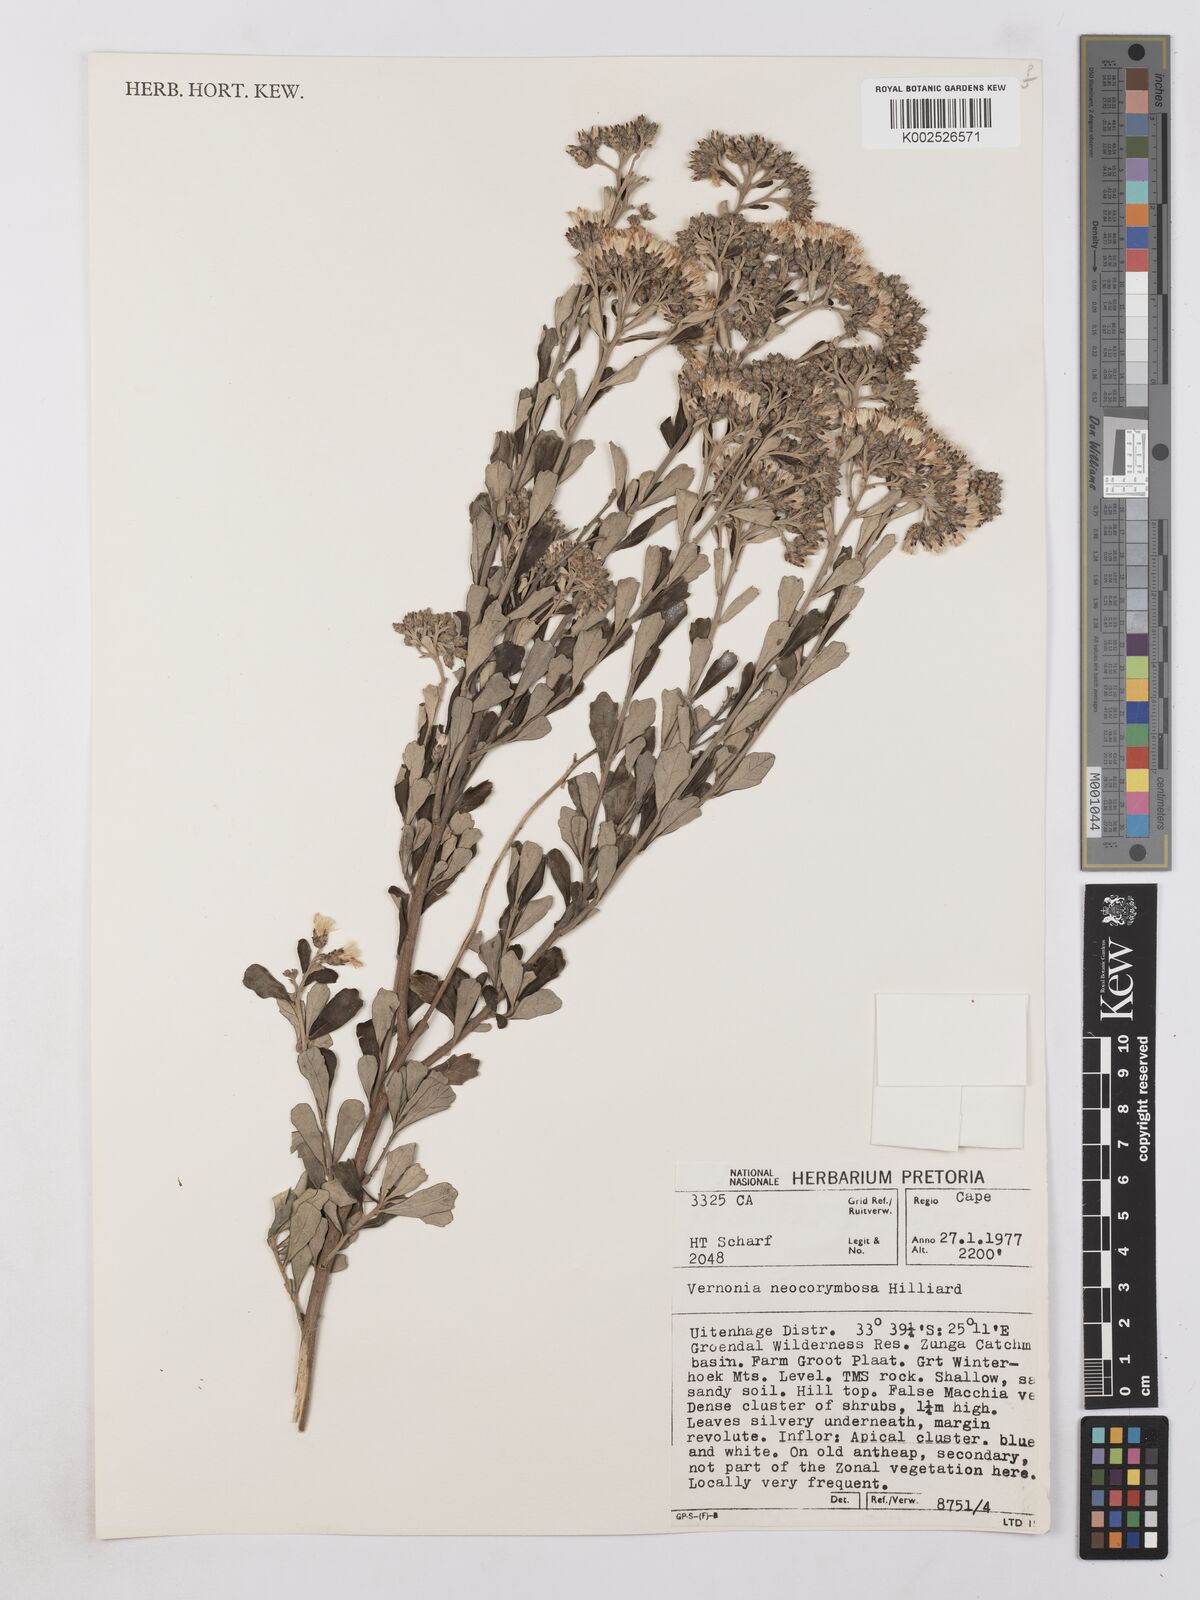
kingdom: Plantae
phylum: Tracheophyta
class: Magnoliopsida
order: Asterales
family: Asteraceae
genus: Gymnanthemum
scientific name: Gymnanthemum corymbosum
